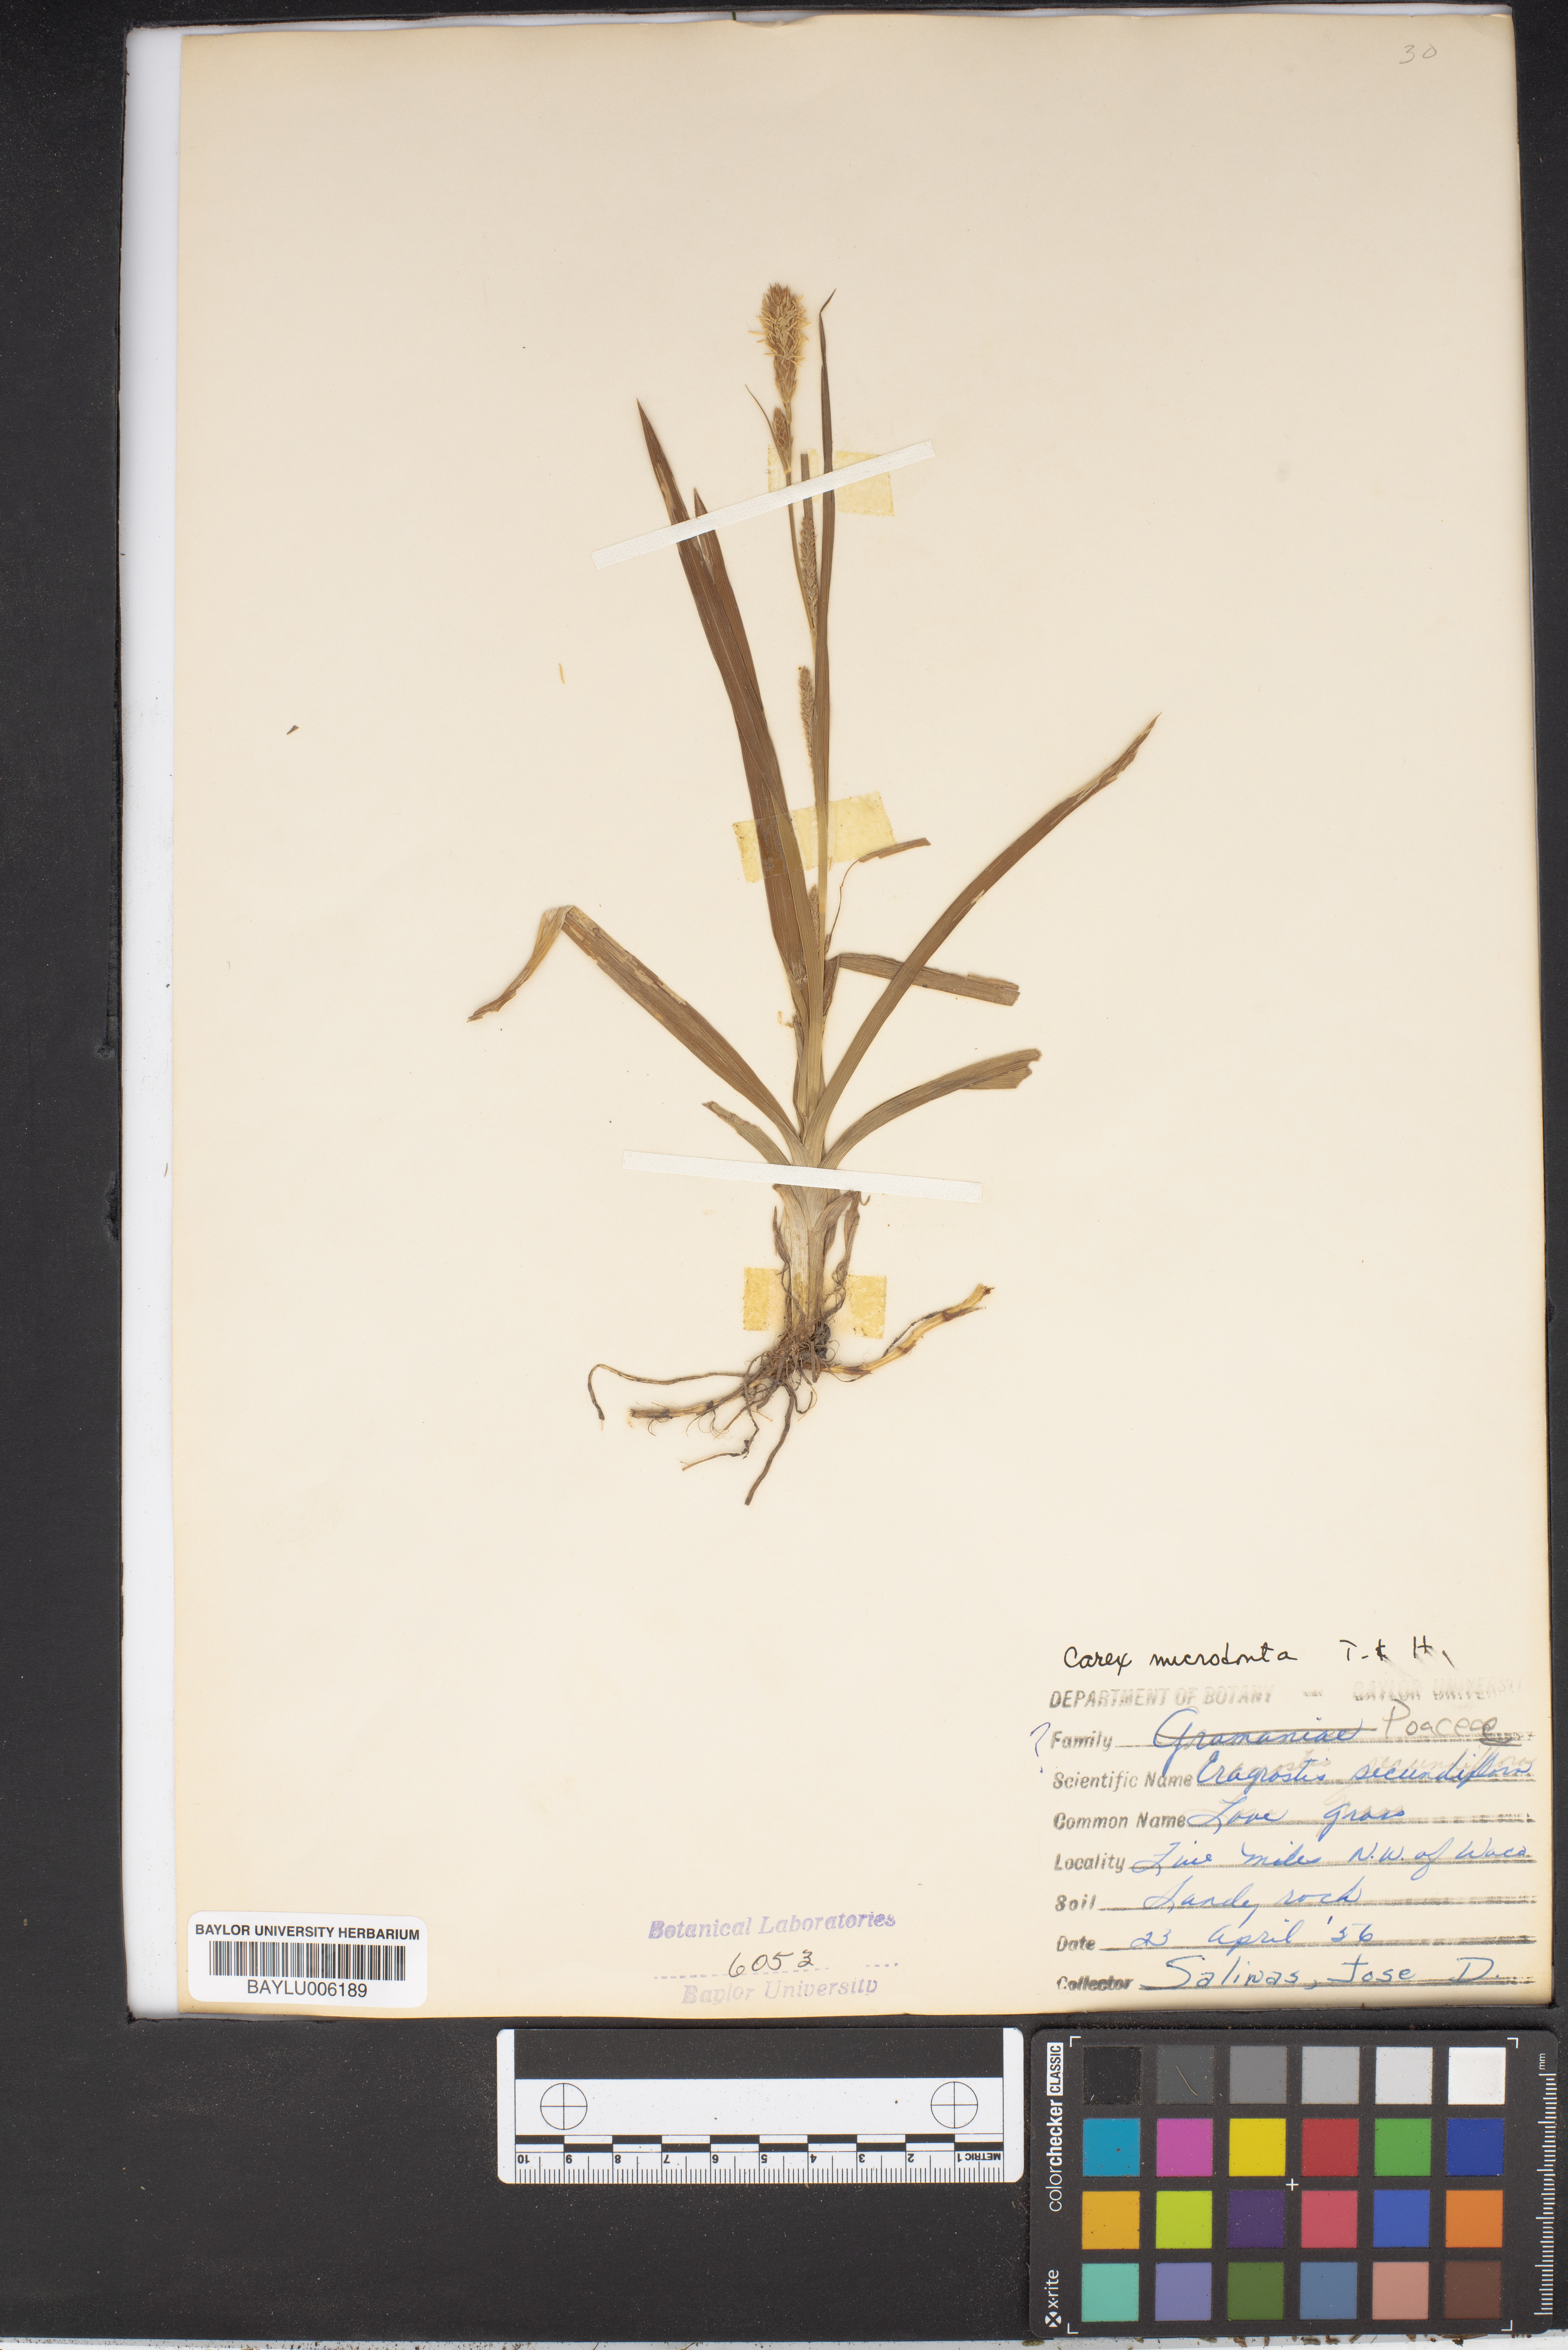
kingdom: Plantae
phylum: Tracheophyta
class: Liliopsida
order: Poales
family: Cyperaceae
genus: Carex
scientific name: Carex microdonta
